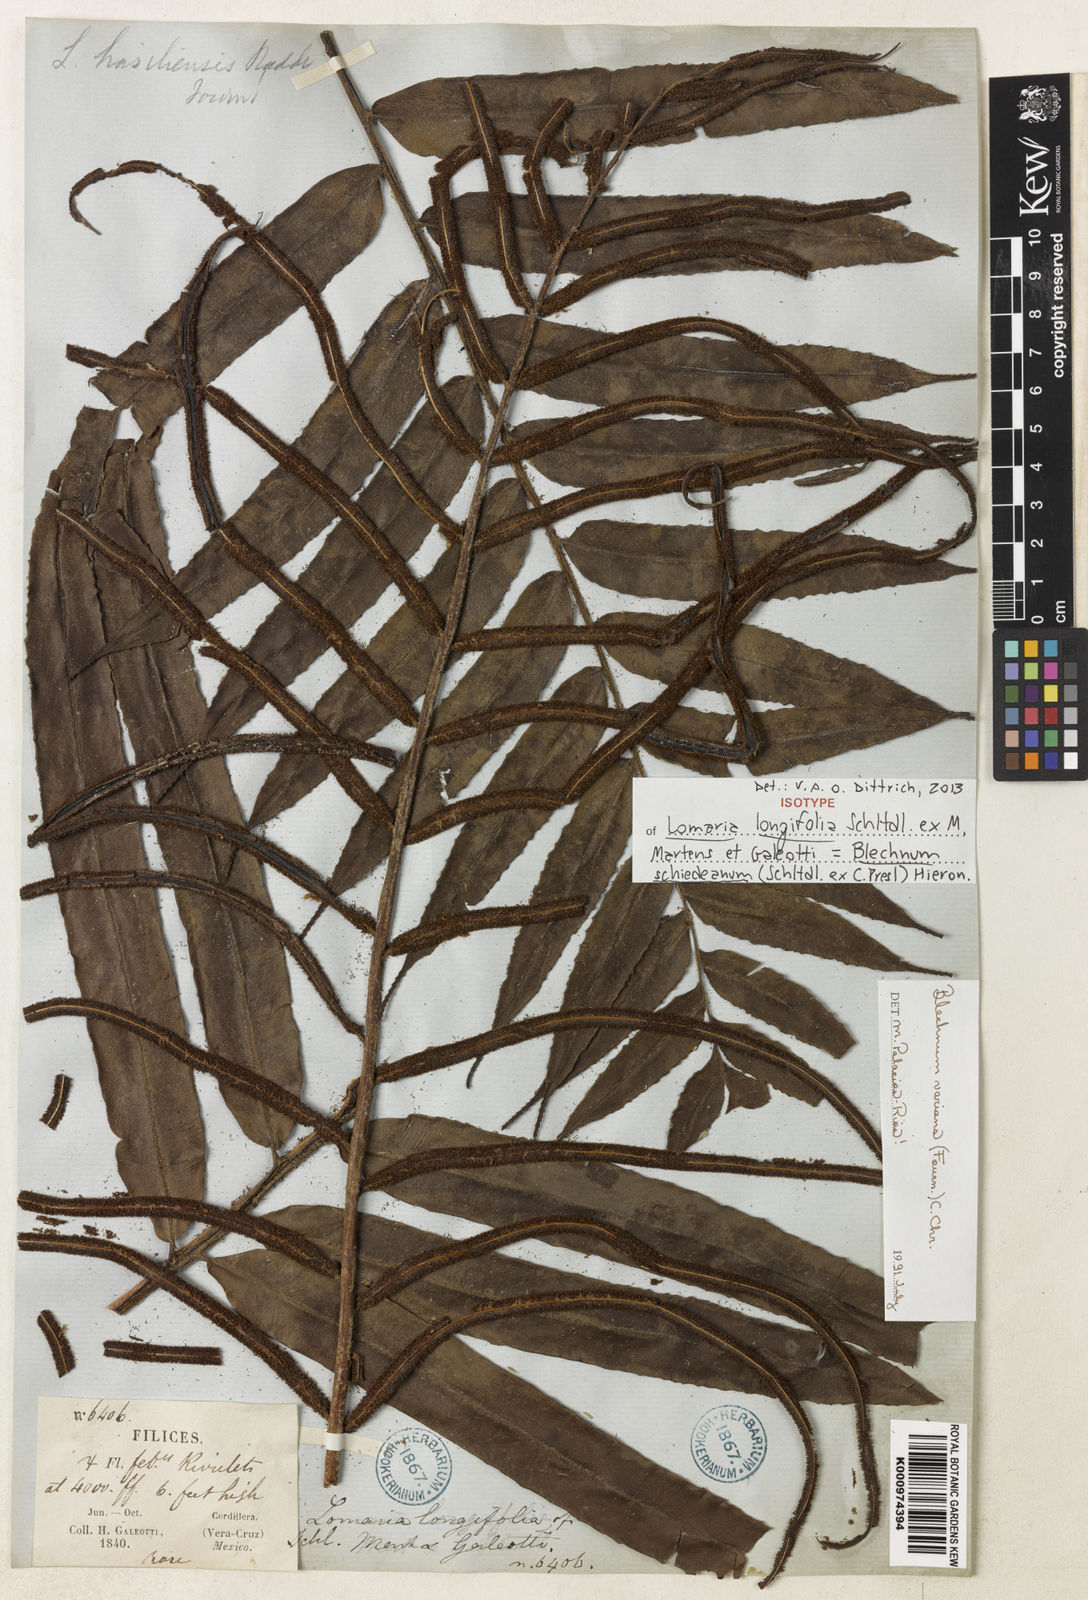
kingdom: Plantae
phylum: Tracheophyta
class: Polypodiopsida
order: Polypodiales
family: Blechnaceae
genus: Parablechnum
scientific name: Parablechnum schiedeanum
